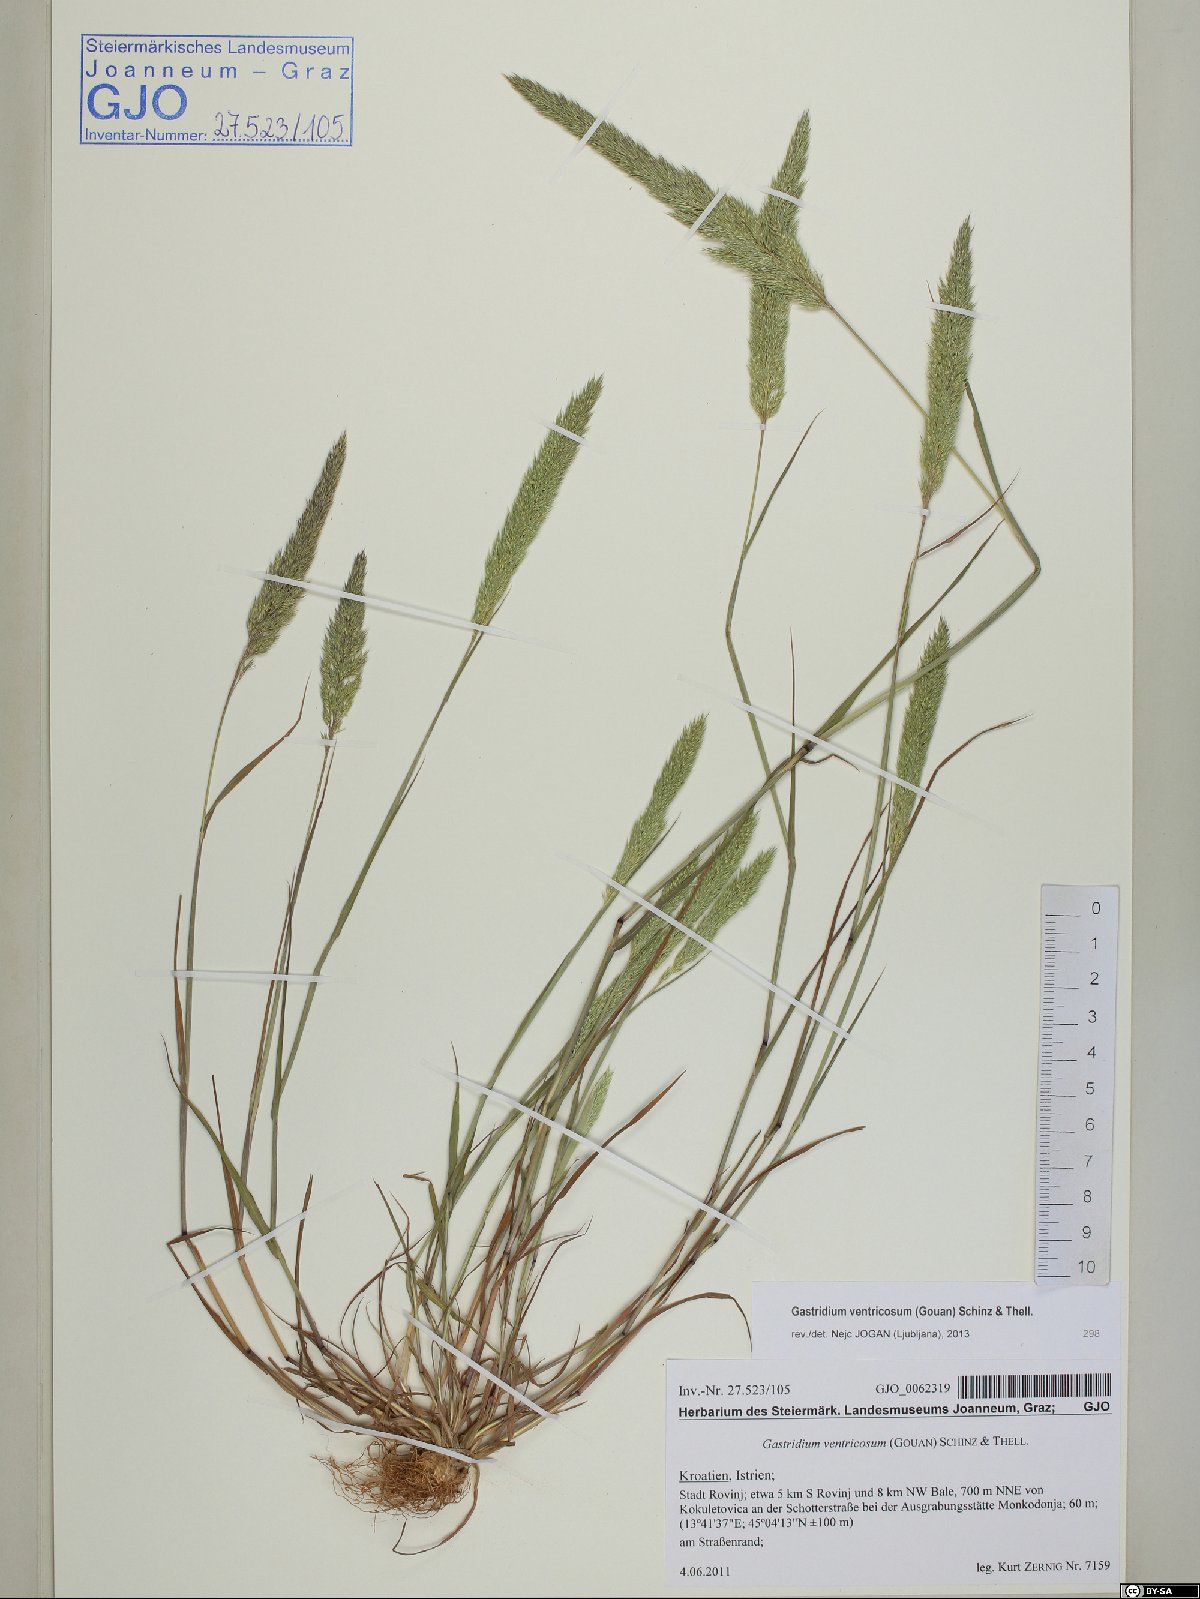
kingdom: Plantae
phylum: Tracheophyta
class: Liliopsida
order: Poales
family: Poaceae
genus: Gastridium
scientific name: Gastridium ventricosum
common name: Nit-grass
